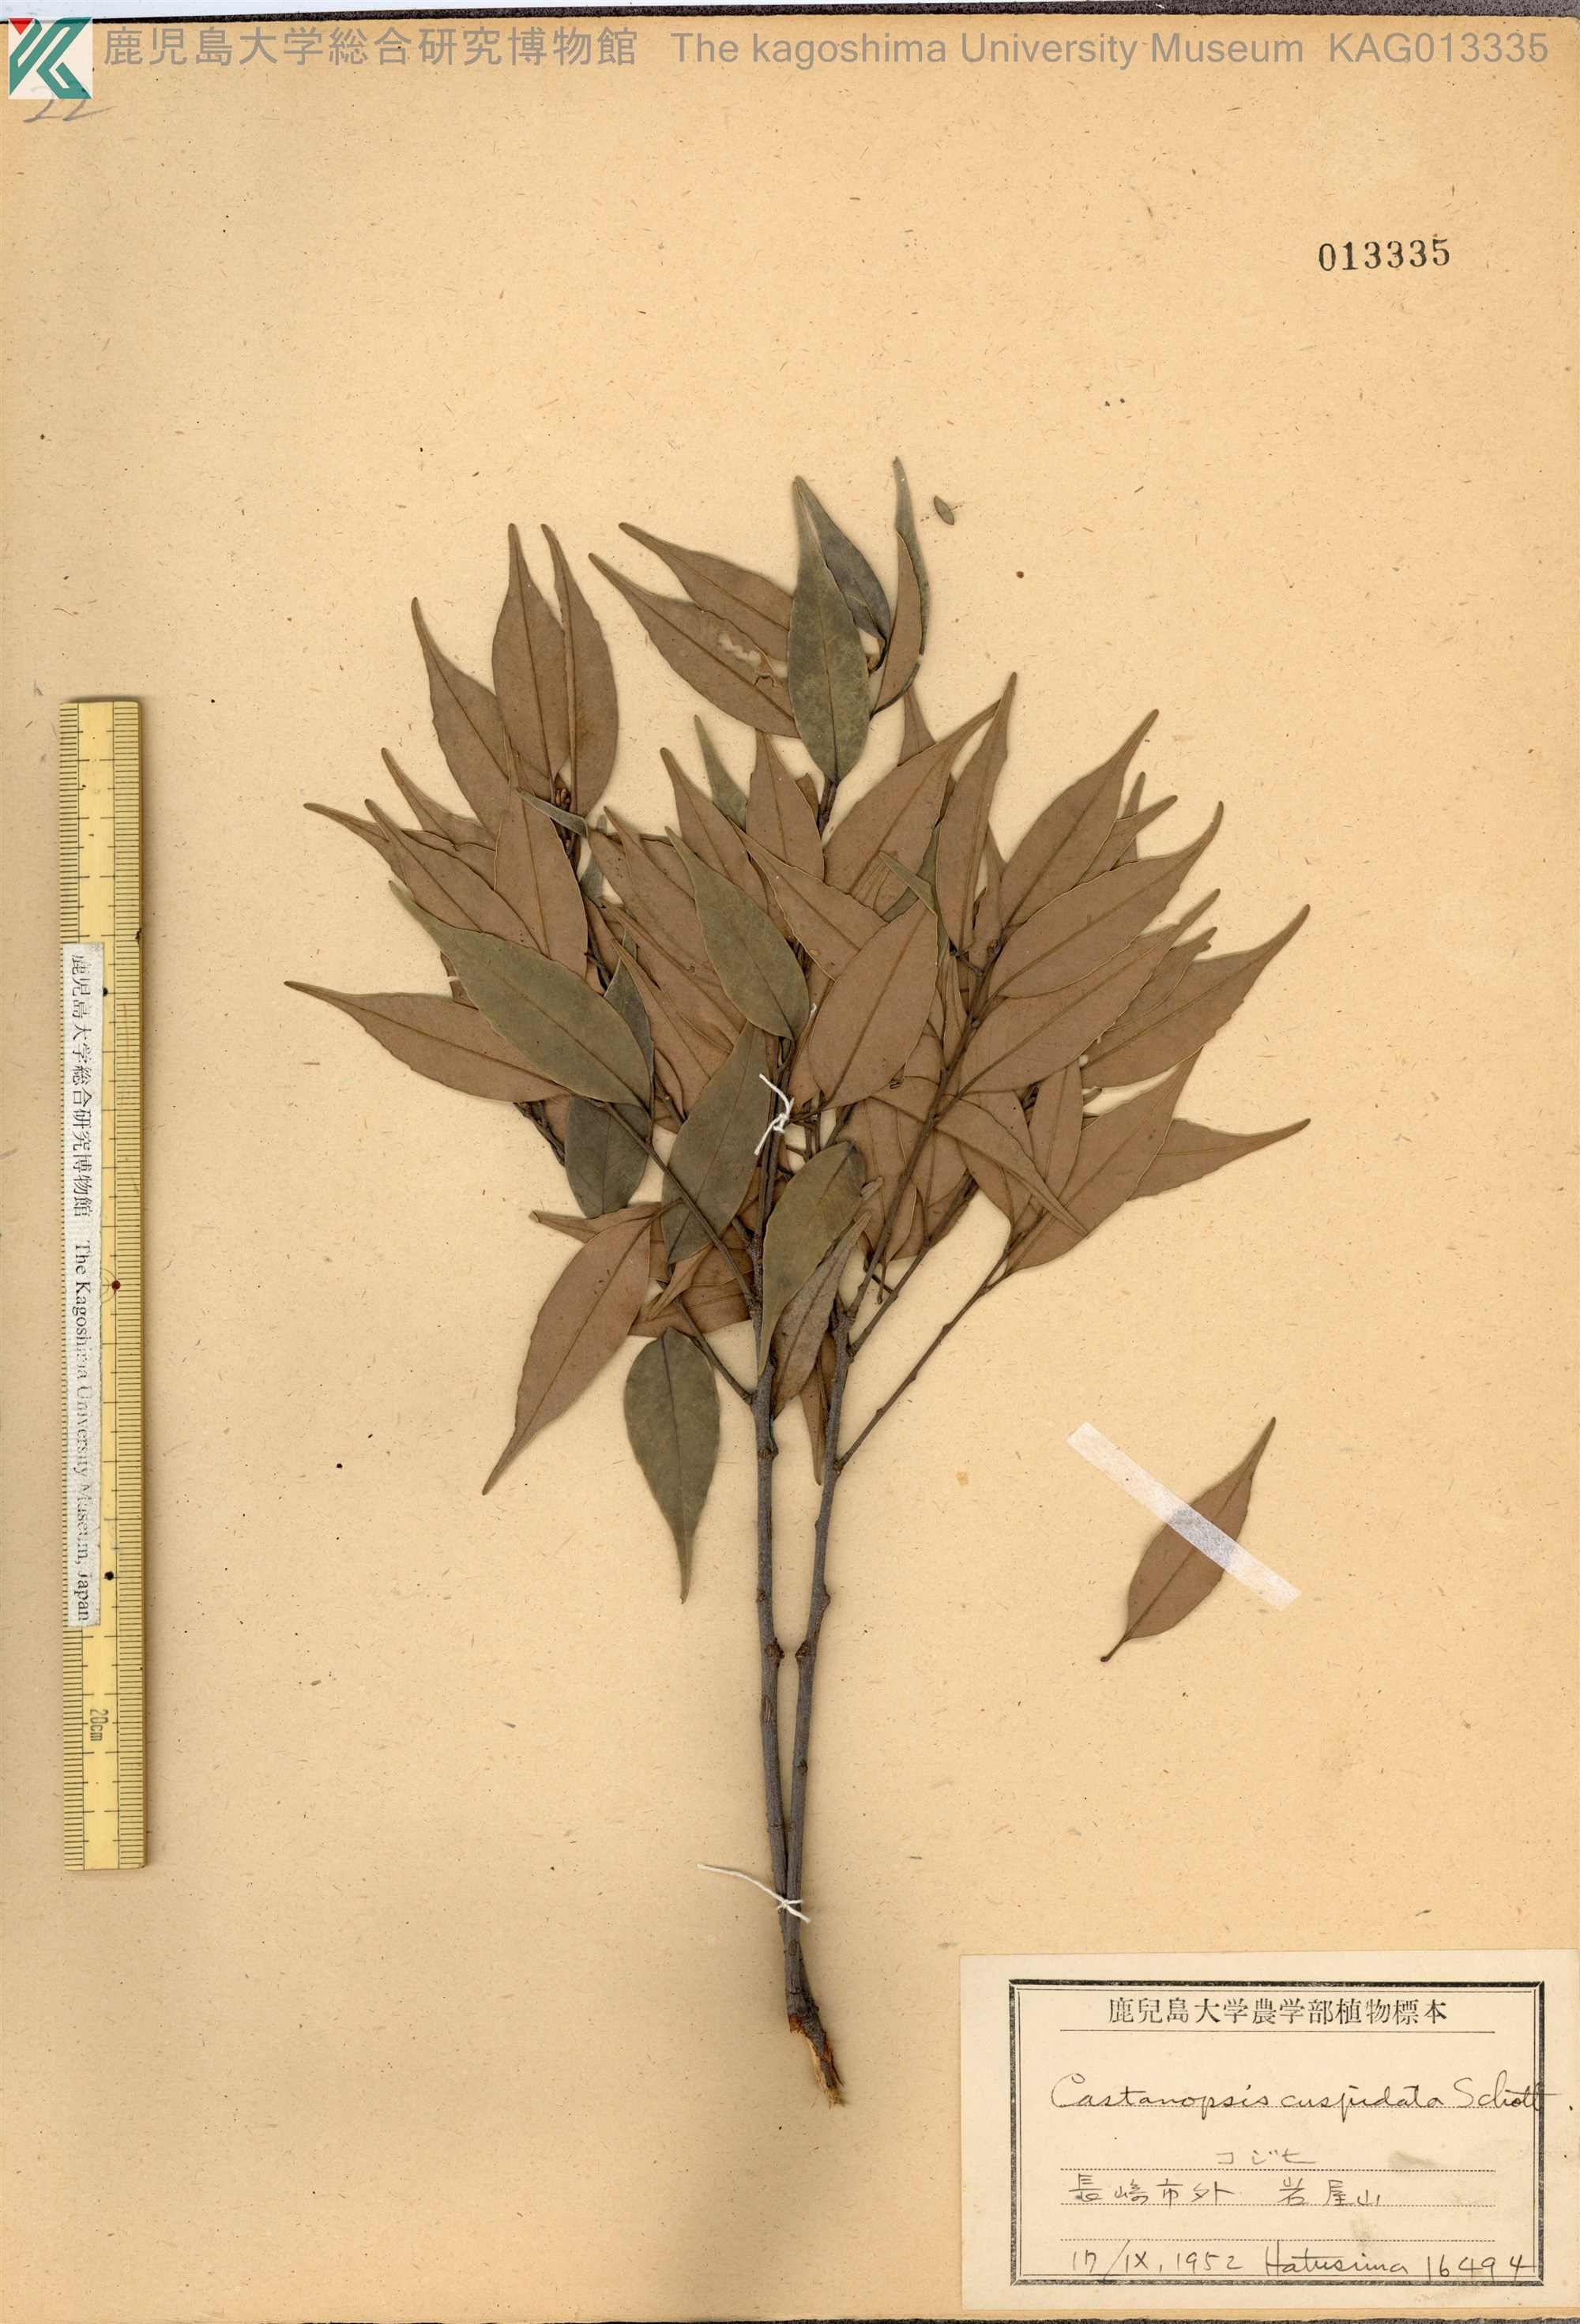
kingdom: Plantae
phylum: Tracheophyta
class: Magnoliopsida
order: Fagales
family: Fagaceae
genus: Castanopsis
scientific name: Castanopsis cuspidata
